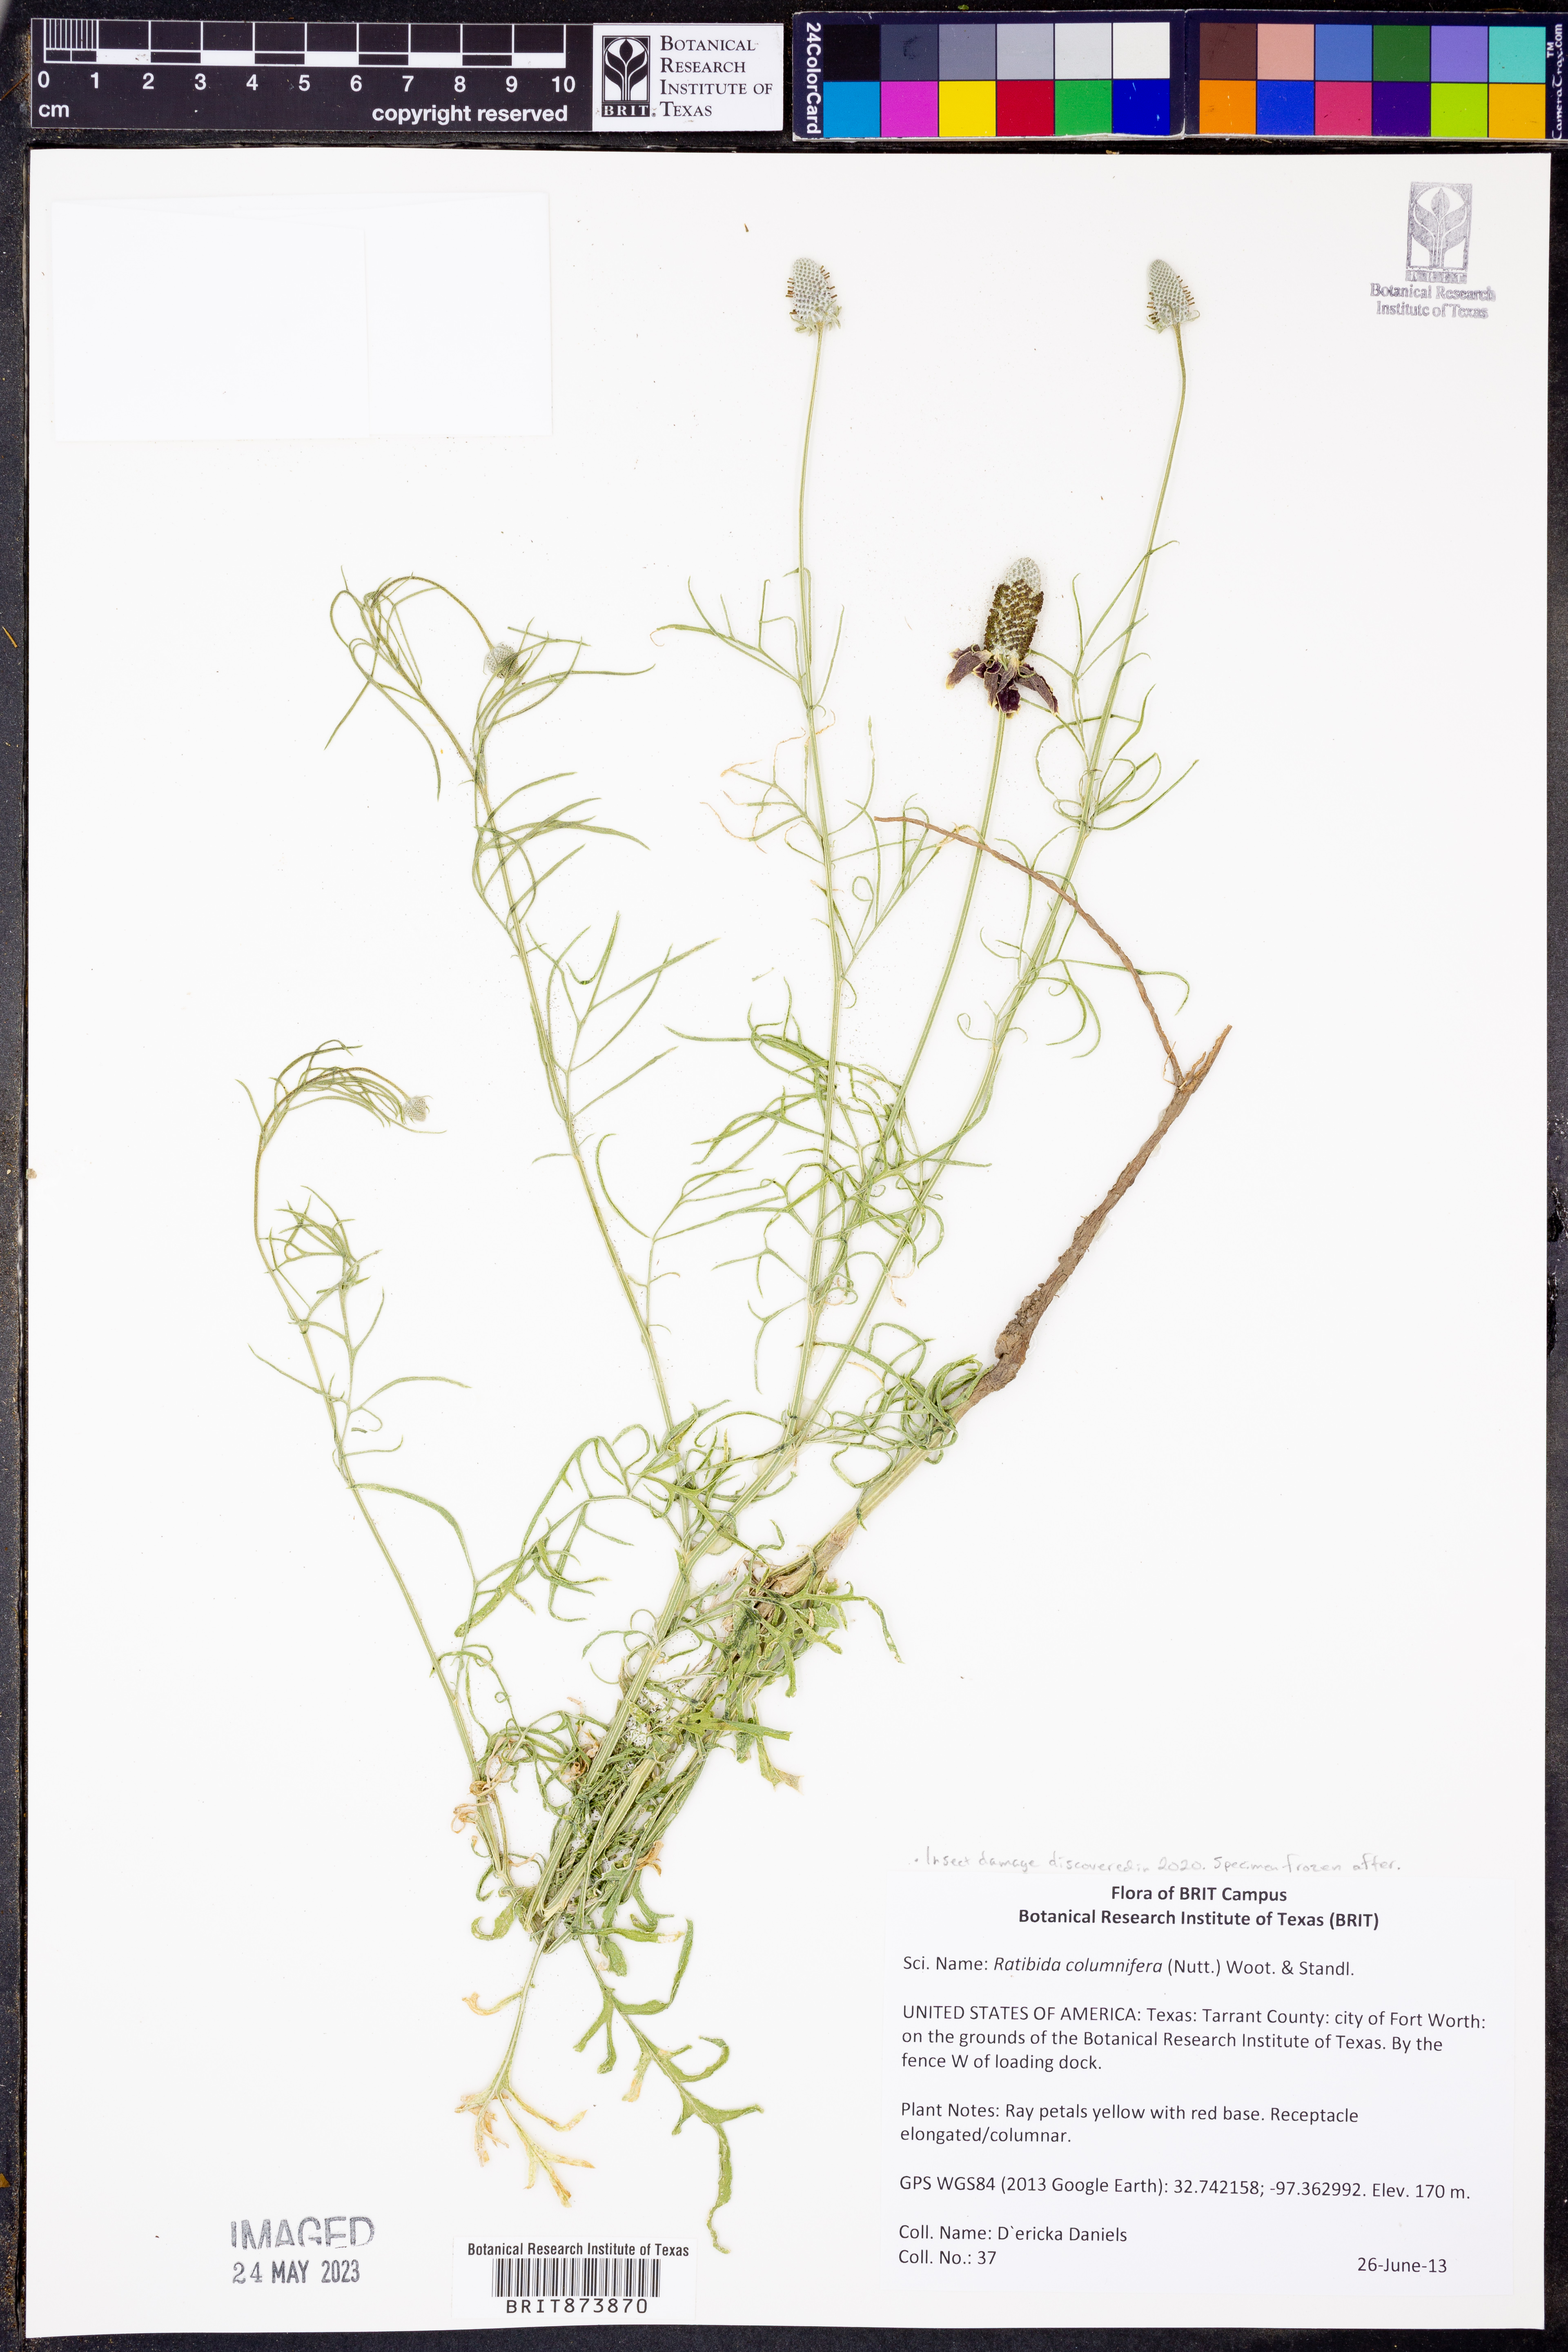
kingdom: Plantae
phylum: Tracheophyta
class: Magnoliopsida
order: Asterales
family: Asteraceae
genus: Ratibida
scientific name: Ratibida columnifera
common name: Prairie coneflower
